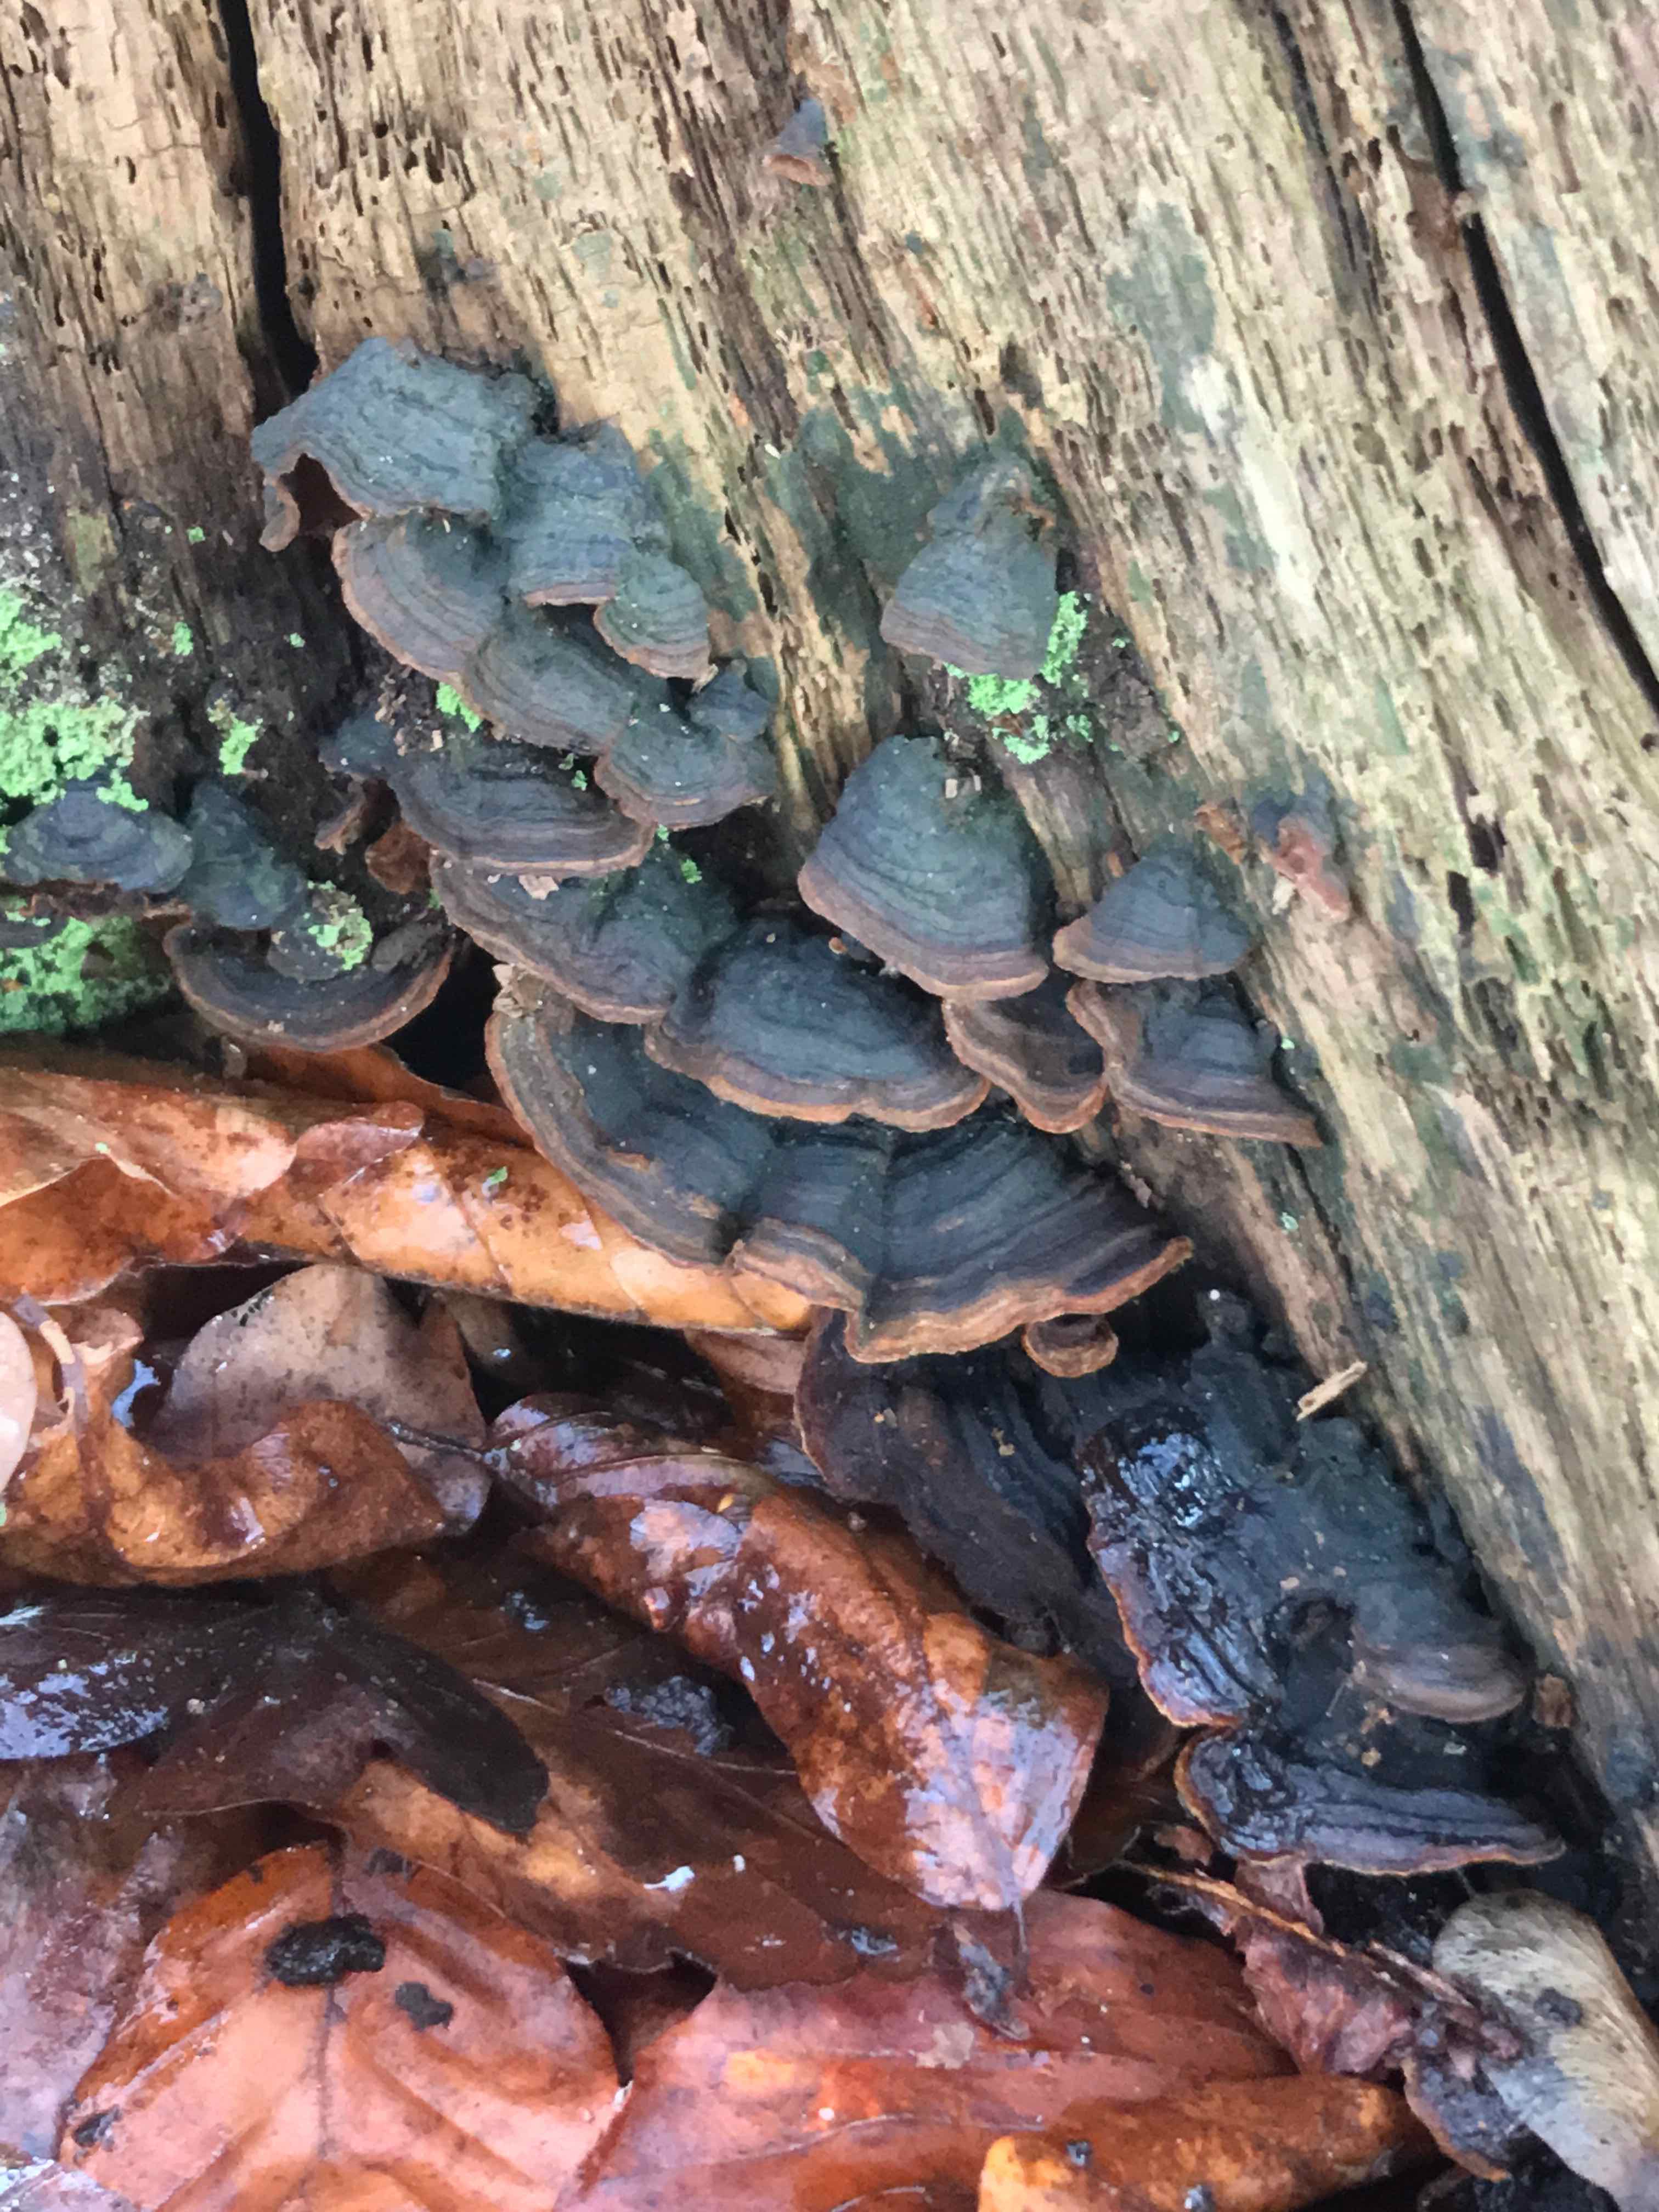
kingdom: Fungi
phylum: Basidiomycota
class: Agaricomycetes
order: Hymenochaetales
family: Hymenochaetaceae
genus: Hymenochaete
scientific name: Hymenochaete rubiginosa
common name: stiv ruslædersvamp
